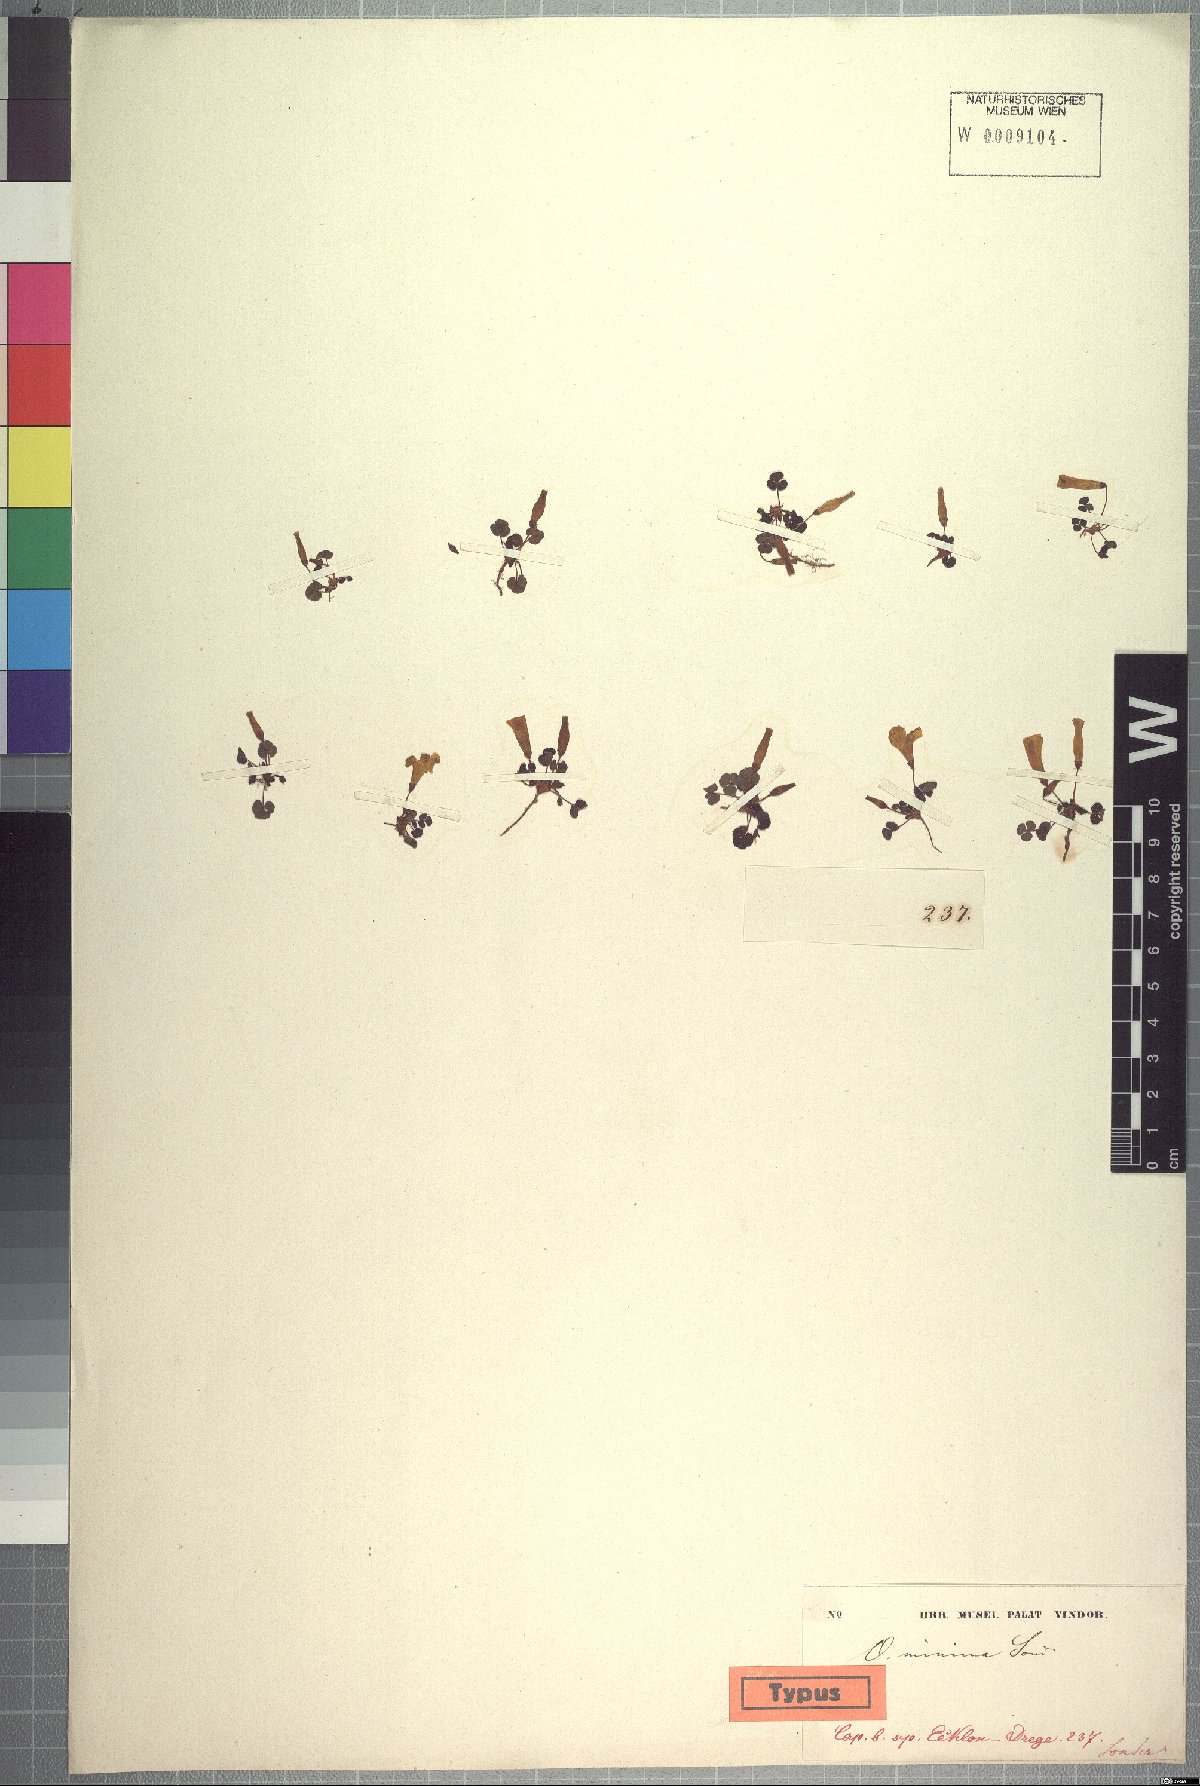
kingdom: Plantae
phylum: Tracheophyta
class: Magnoliopsida
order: Oxalidales
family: Oxalidaceae
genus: Oxalis
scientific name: Oxalis sonderiana
